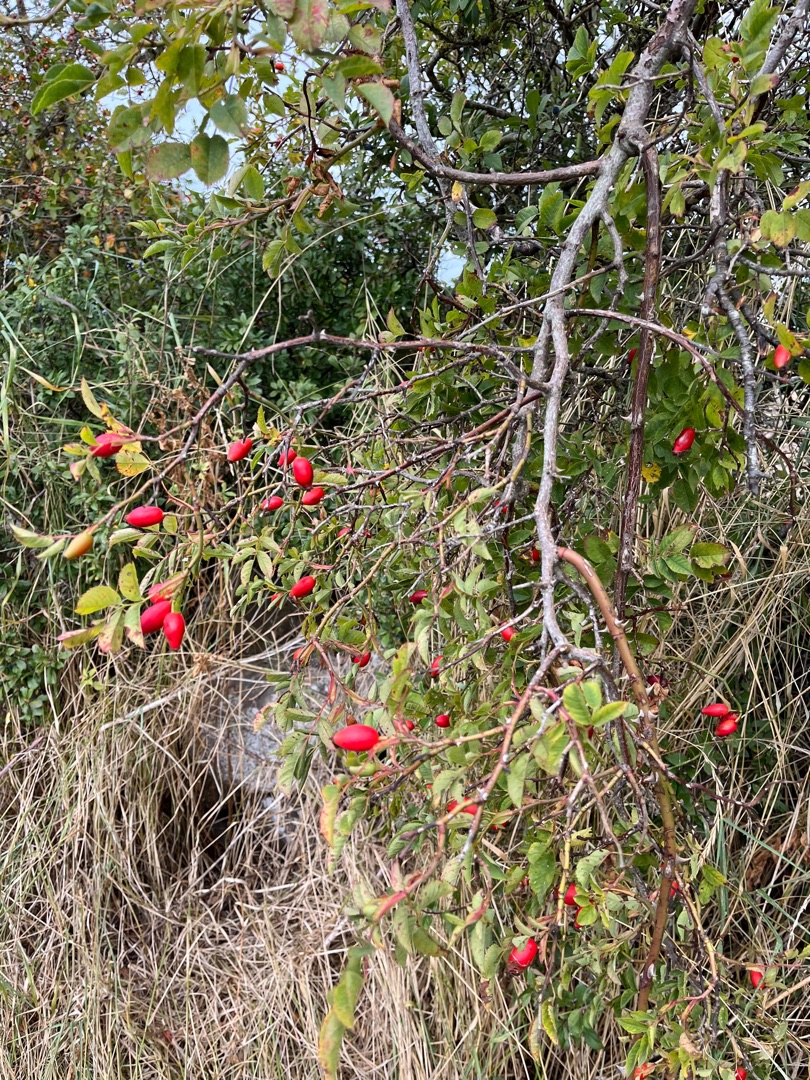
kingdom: Plantae
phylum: Tracheophyta
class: Magnoliopsida
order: Rosales
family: Rosaceae
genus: Rosa
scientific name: Rosa canina
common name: Glat hunde-rose
